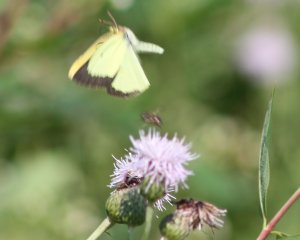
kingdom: Animalia
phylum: Arthropoda
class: Insecta
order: Lepidoptera
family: Pieridae
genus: Colias
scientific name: Colias philodice
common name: Clouded Sulphur
